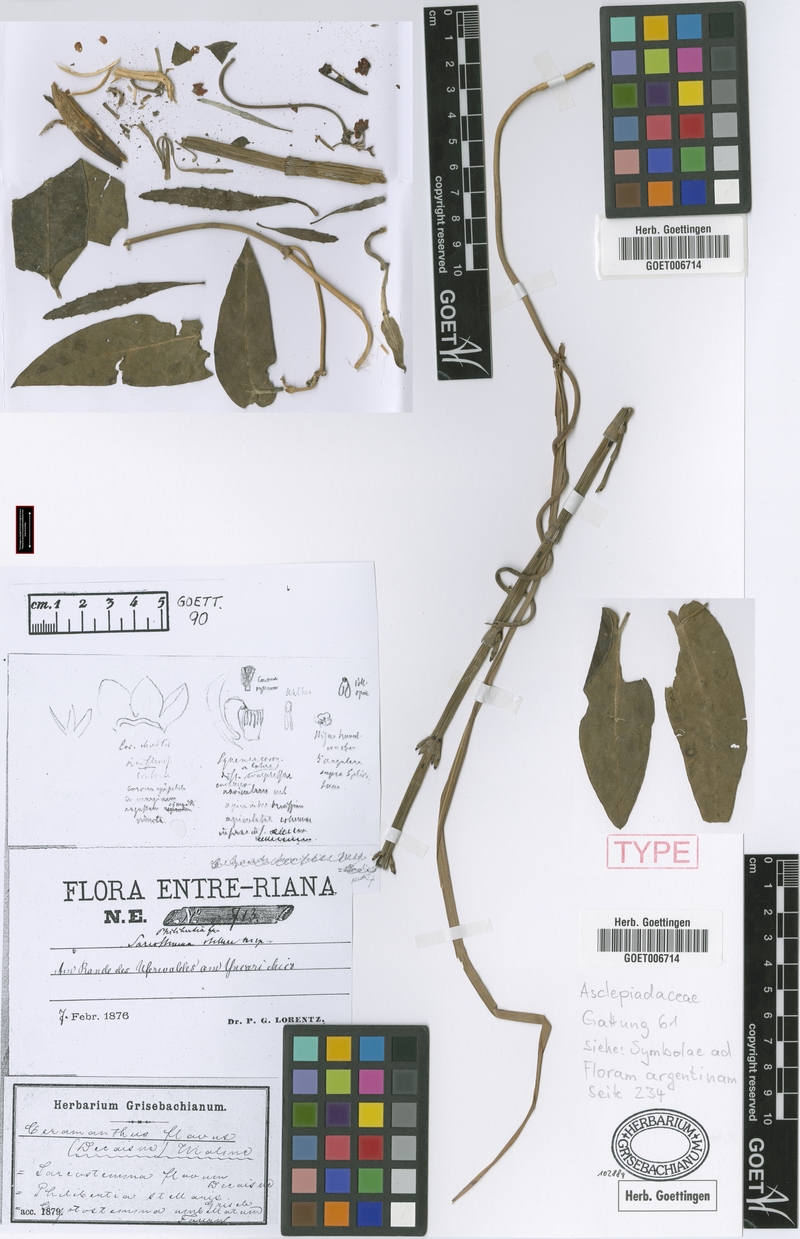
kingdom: Plantae
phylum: Tracheophyta
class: Magnoliopsida
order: Gentianales
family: Apocynaceae
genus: Funastrum
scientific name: Funastrum flavum
